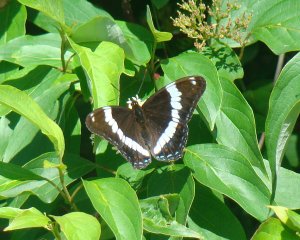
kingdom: Animalia
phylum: Arthropoda
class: Insecta
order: Lepidoptera
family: Nymphalidae
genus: Limenitis
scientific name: Limenitis arthemis
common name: Red-spotted Admiral
